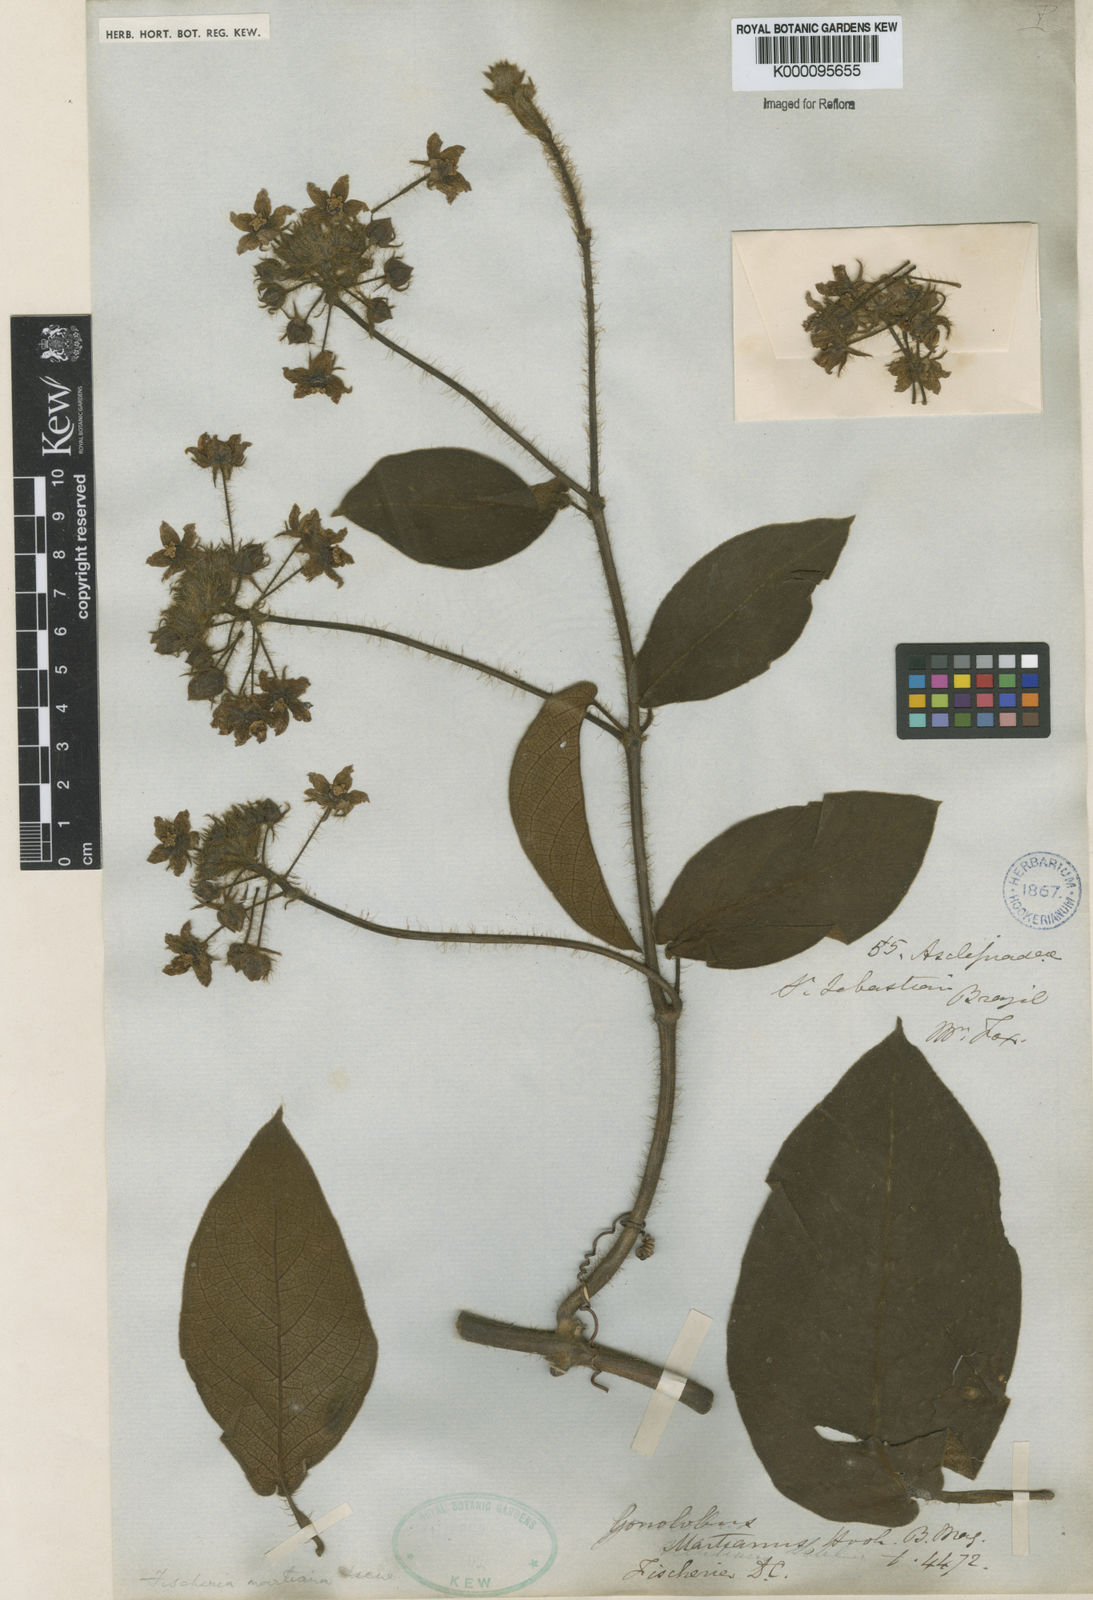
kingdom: Plantae
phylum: Tracheophyta
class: Magnoliopsida
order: Gentianales
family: Apocynaceae
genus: Fischeria
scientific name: Fischeria billbergiana
